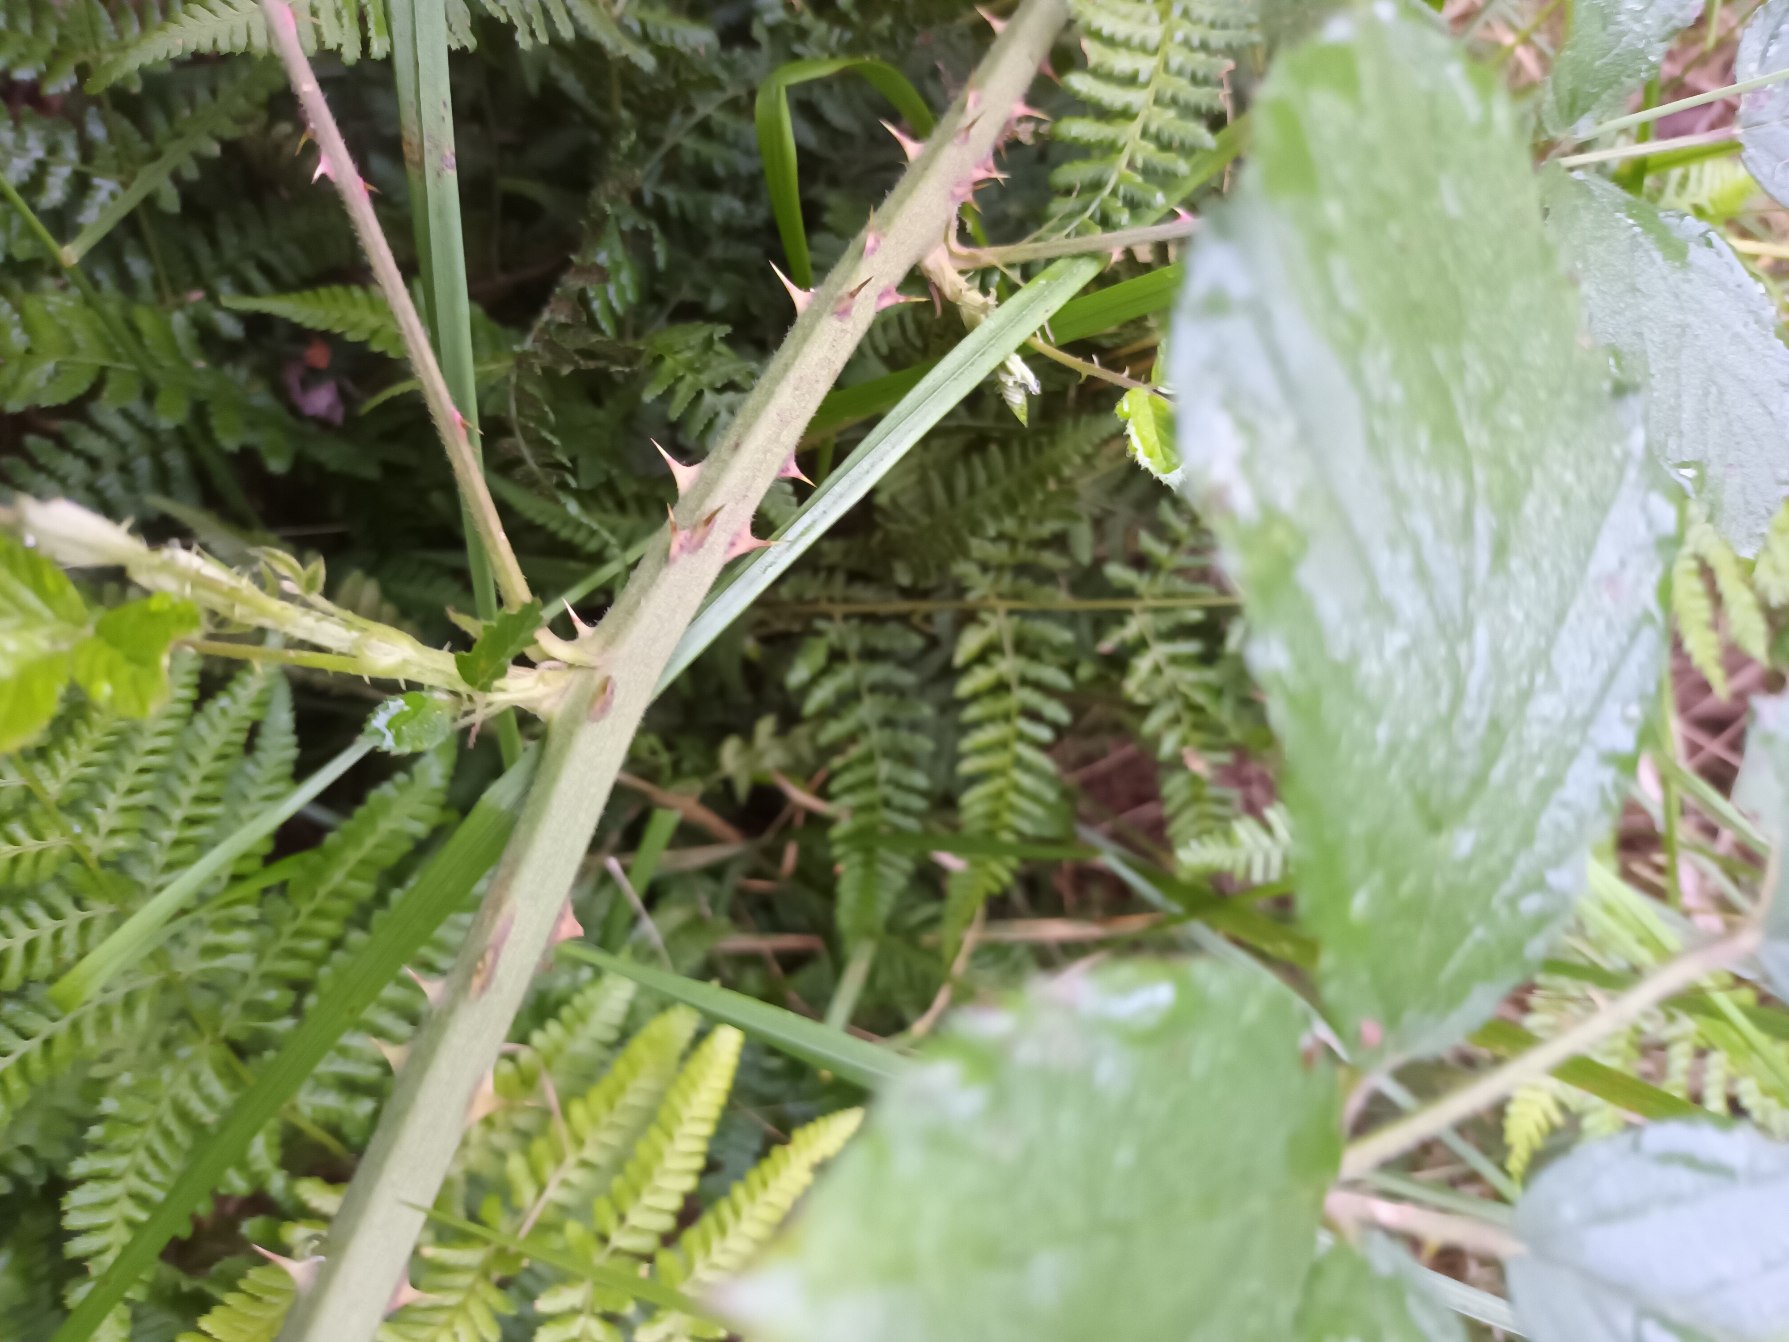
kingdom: Plantae
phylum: Tracheophyta
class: Magnoliopsida
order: Rosales
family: Rosaceae
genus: Rubus
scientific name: Rubus lindebergii
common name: Lindebergs brombær
